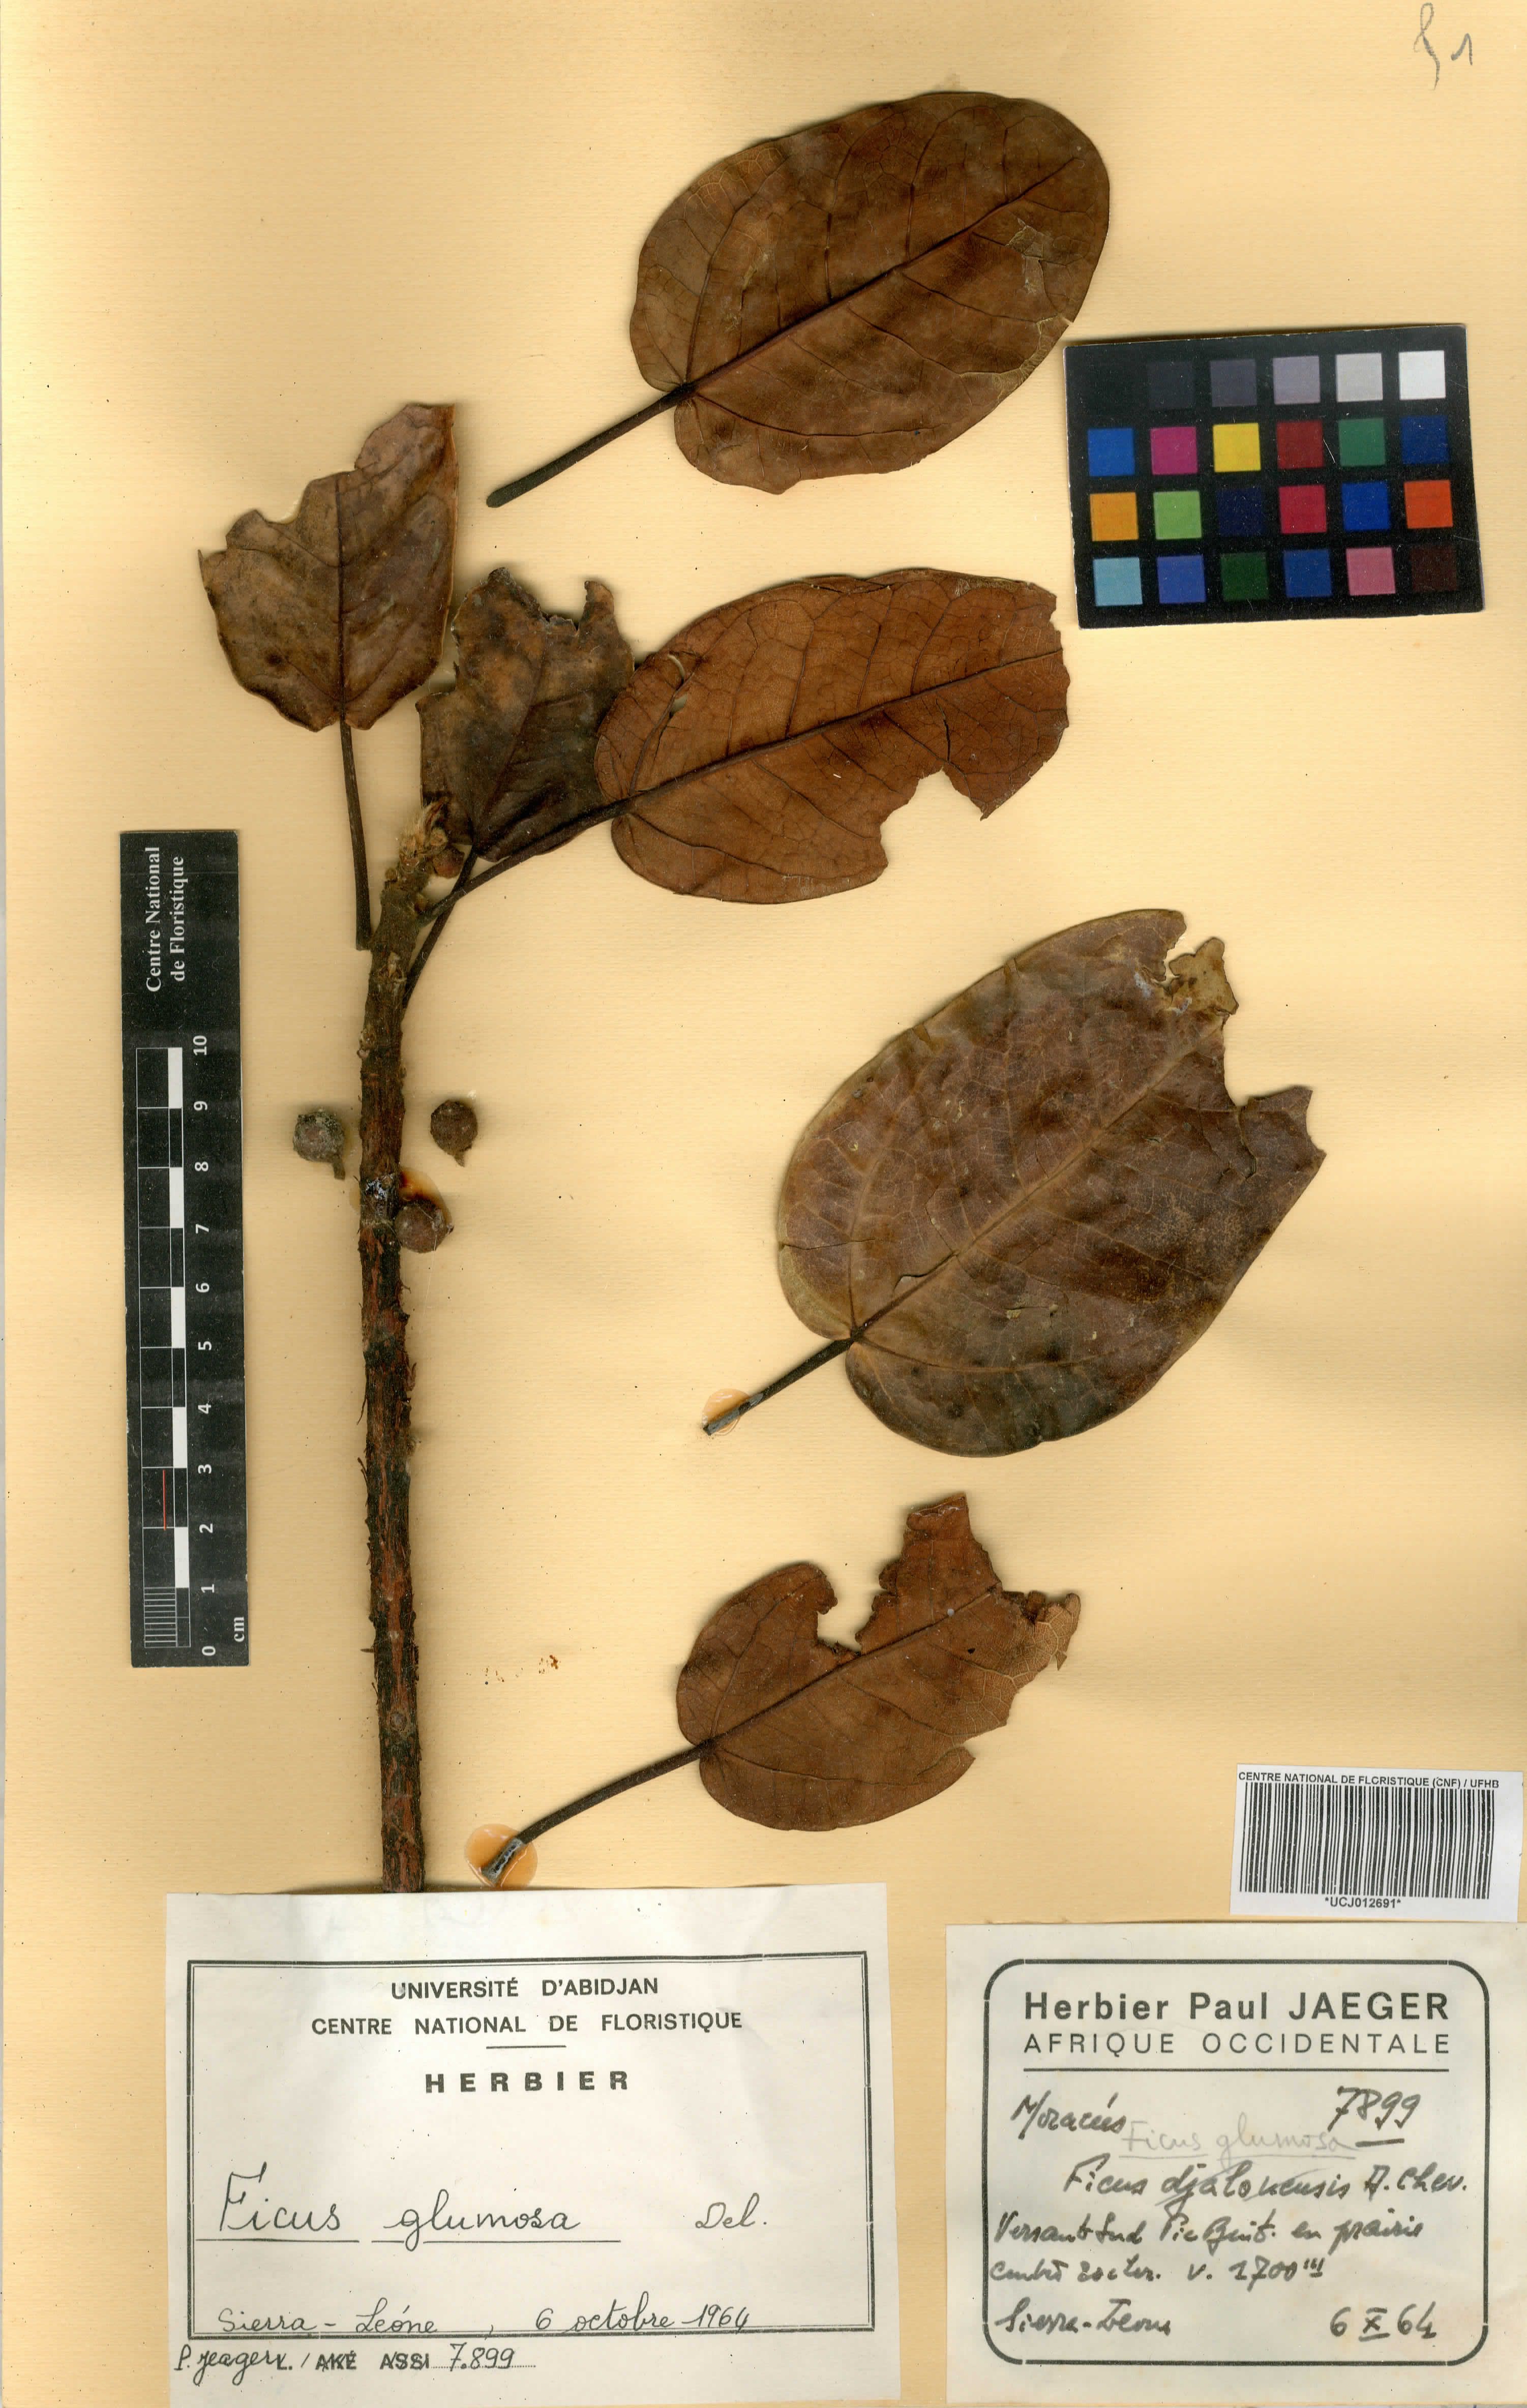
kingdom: Plantae
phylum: Tracheophyta
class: Magnoliopsida
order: Rosales
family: Moraceae
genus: Ficus
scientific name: Ficus glumosa
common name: Hairy rock fig
